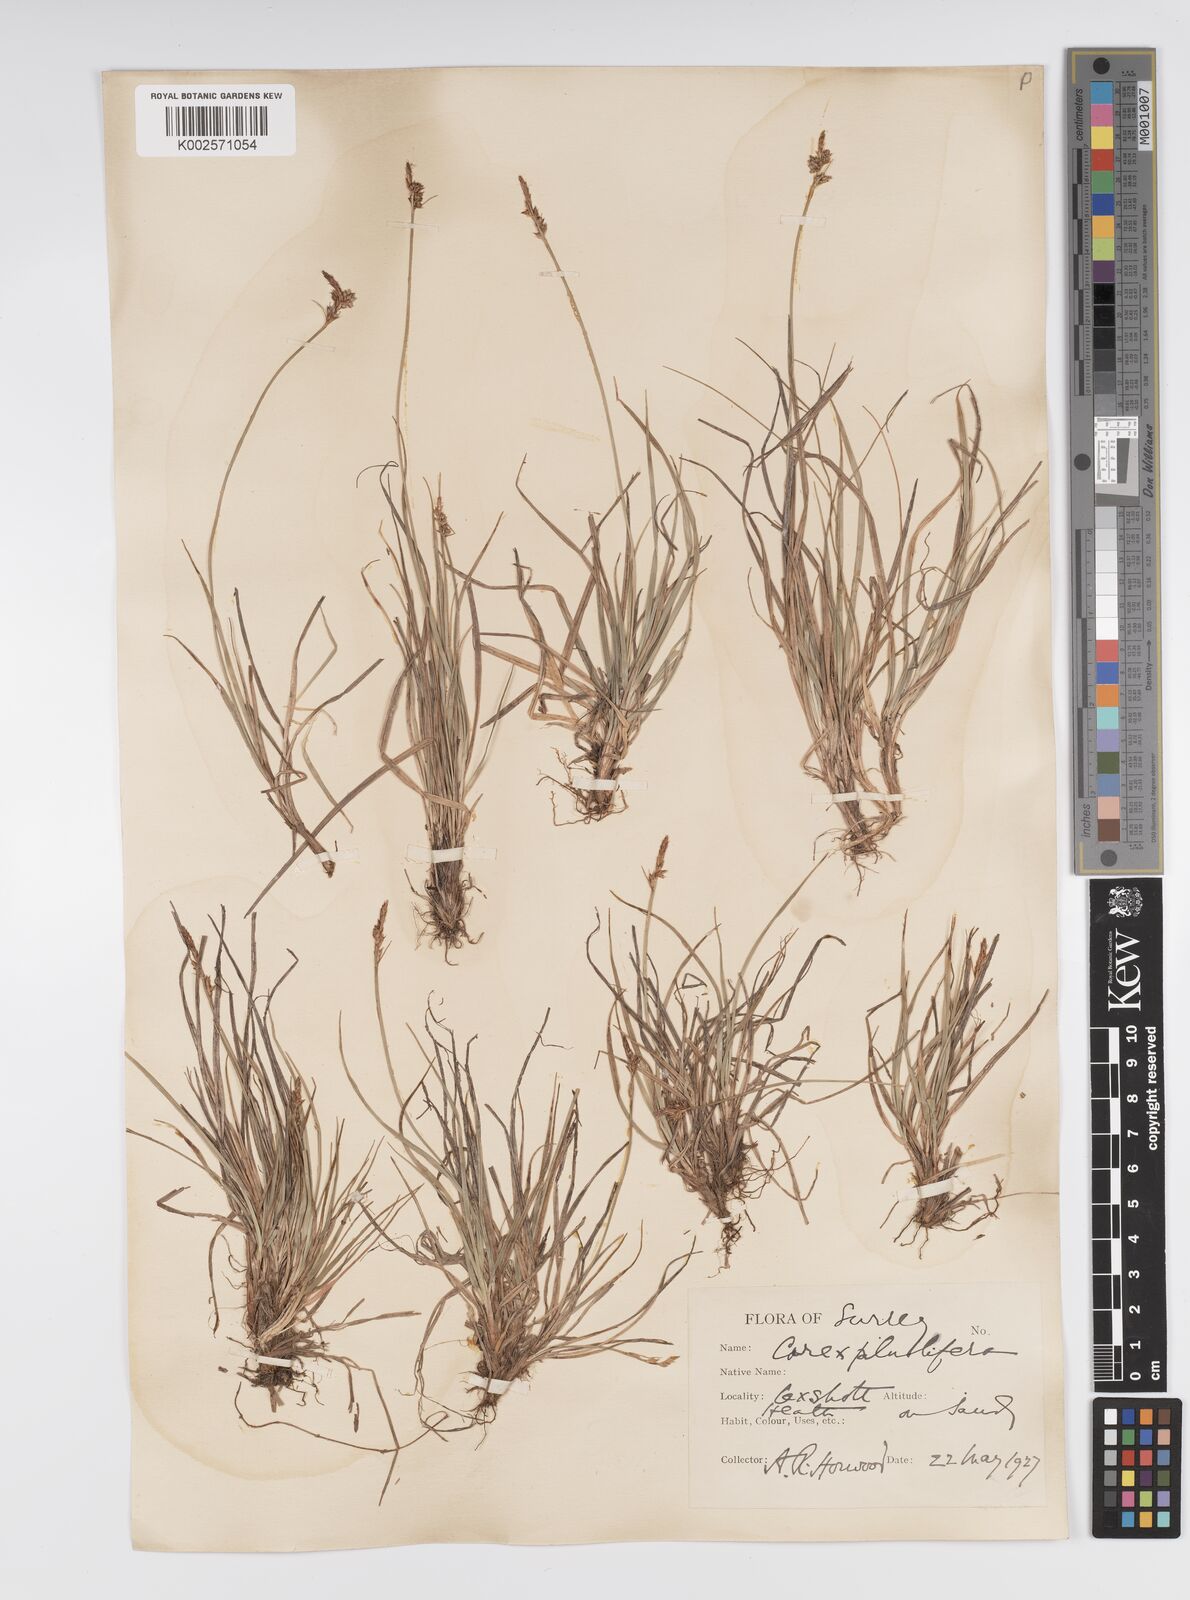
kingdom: Plantae
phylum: Tracheophyta
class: Liliopsida
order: Poales
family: Cyperaceae
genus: Carex
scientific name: Carex pilulifera
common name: Pill sedge
